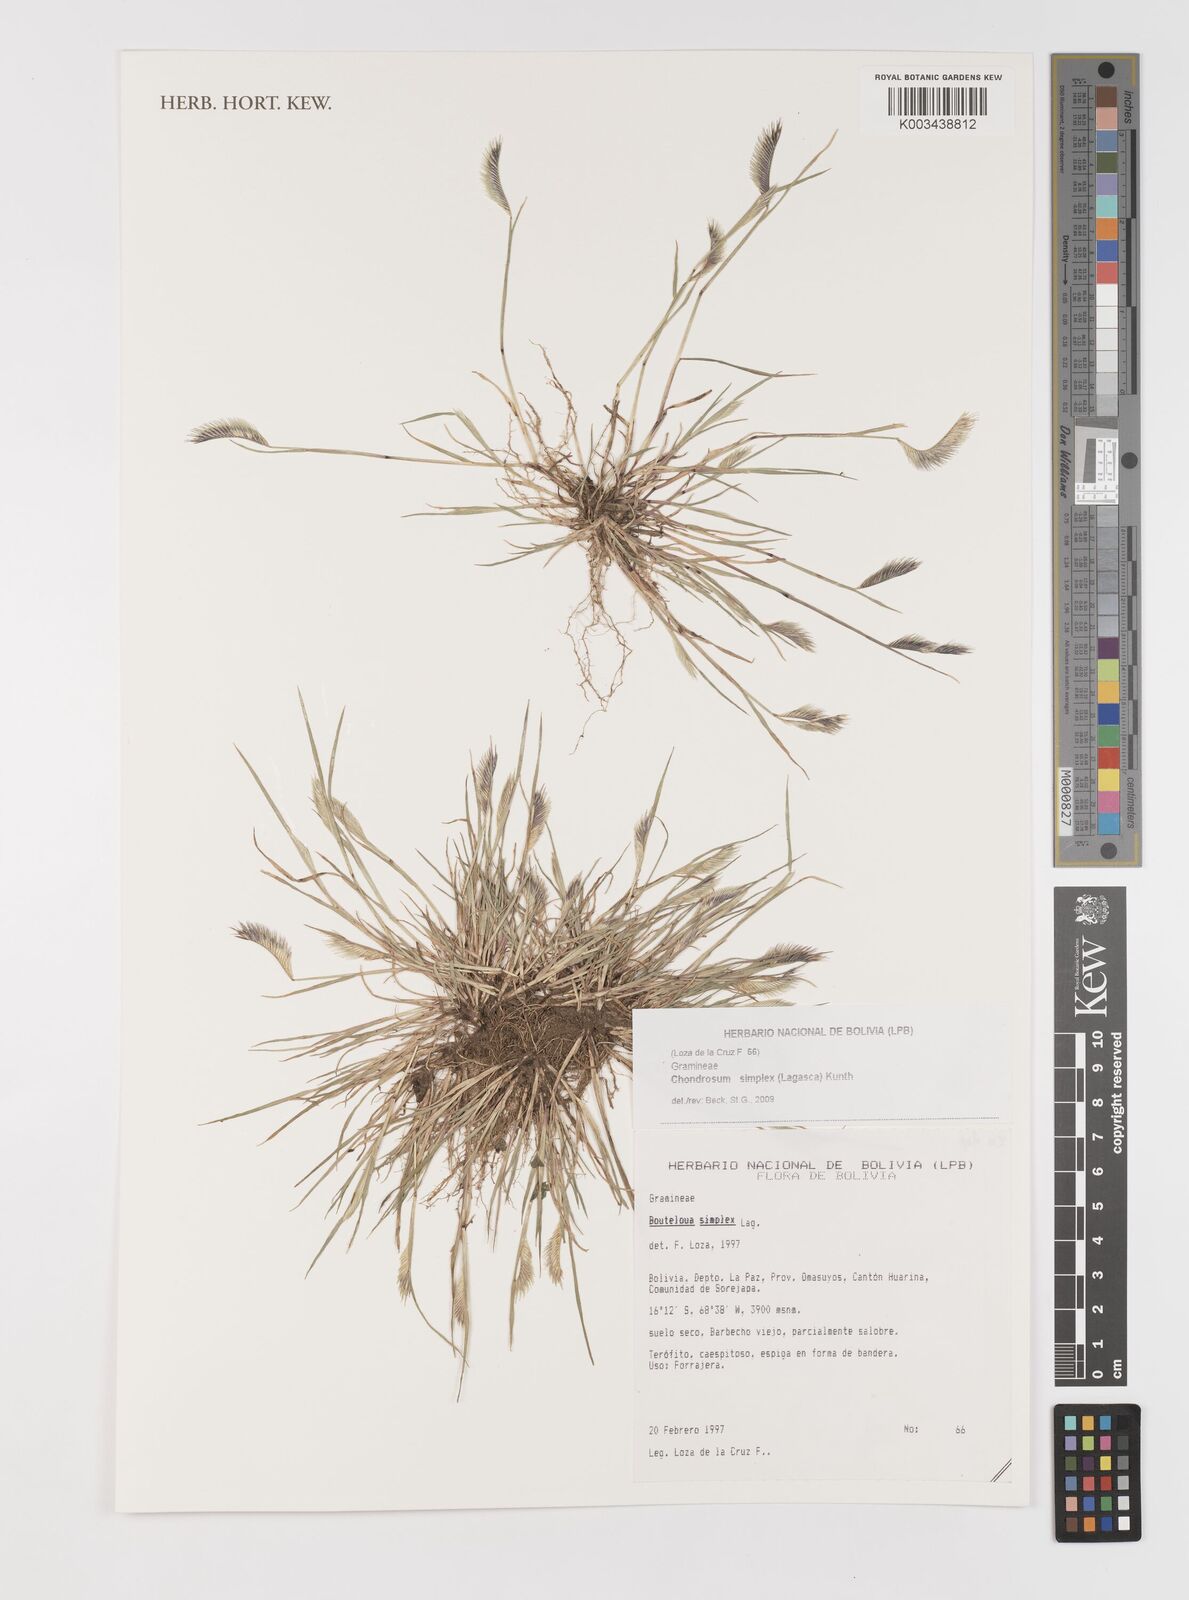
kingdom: Plantae
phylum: Tracheophyta
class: Liliopsida
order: Poales
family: Poaceae
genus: Bouteloua
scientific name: Bouteloua simplex
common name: Mat grama
